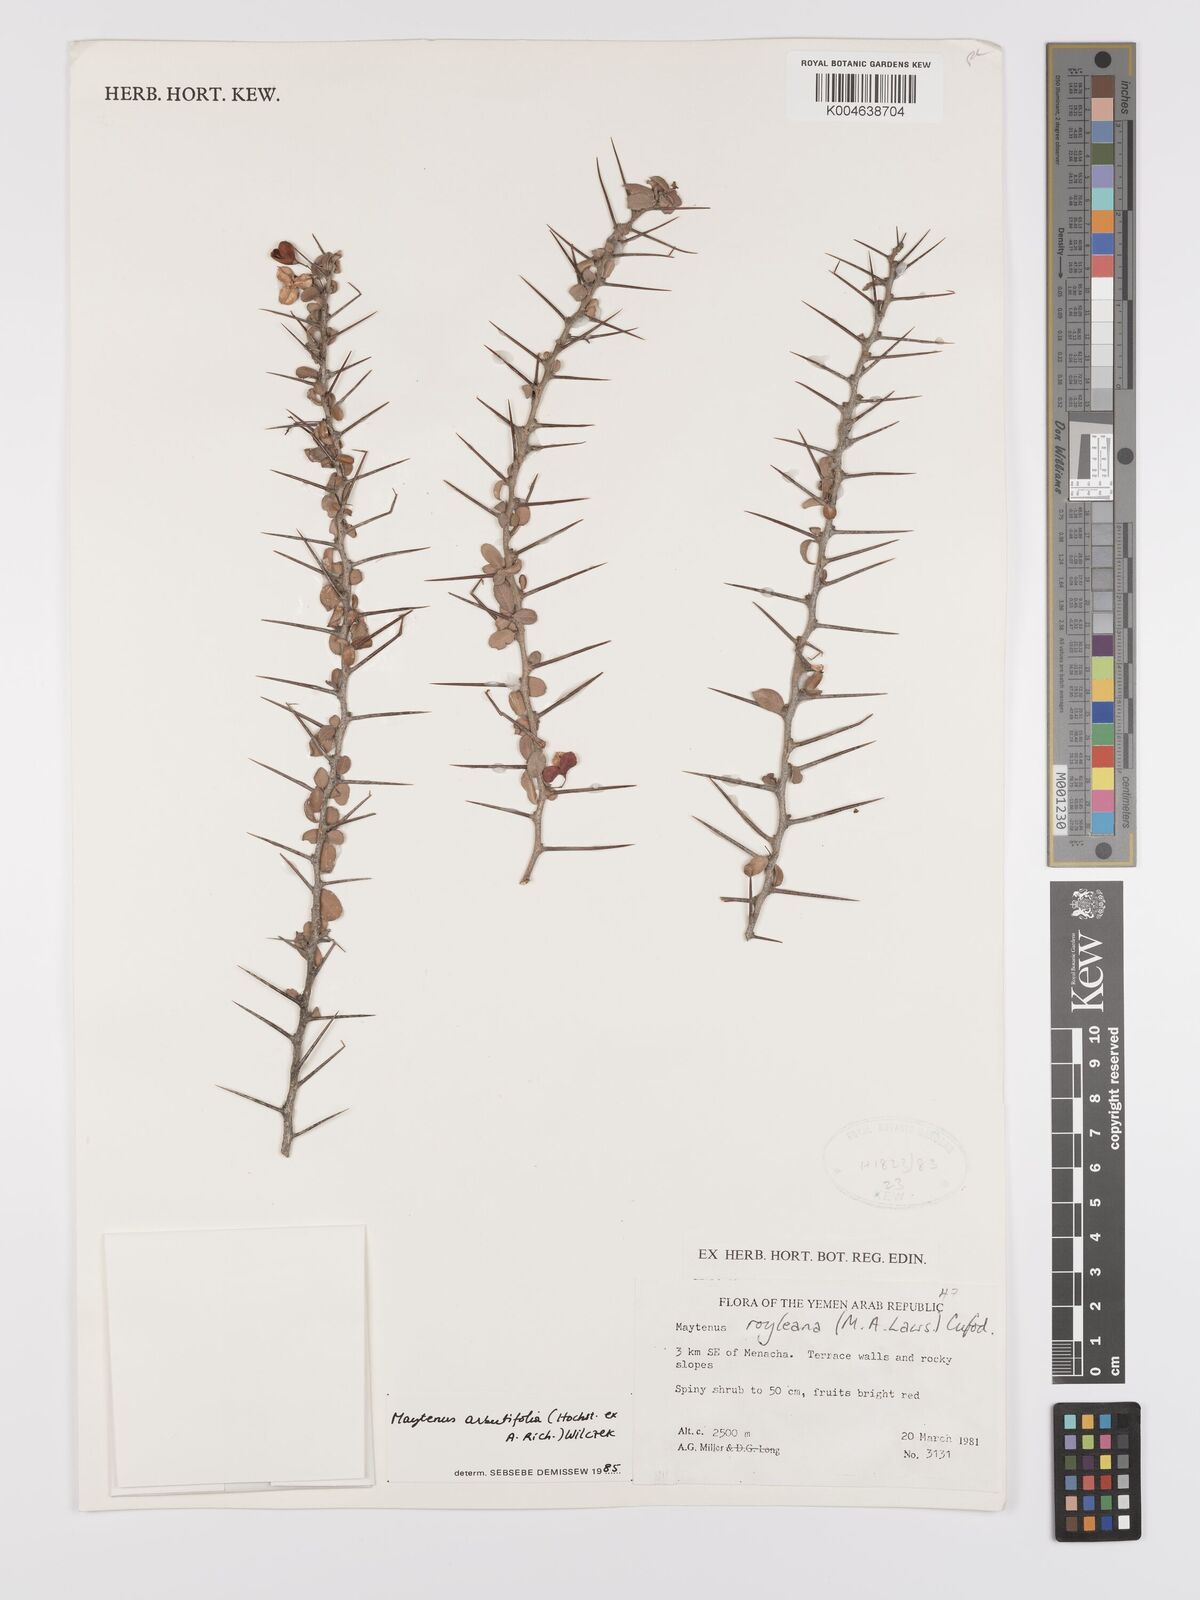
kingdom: Plantae
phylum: Tracheophyta
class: Magnoliopsida
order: Celastrales
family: Celastraceae
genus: Gymnosporia
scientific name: Gymnosporia arbutifolia
